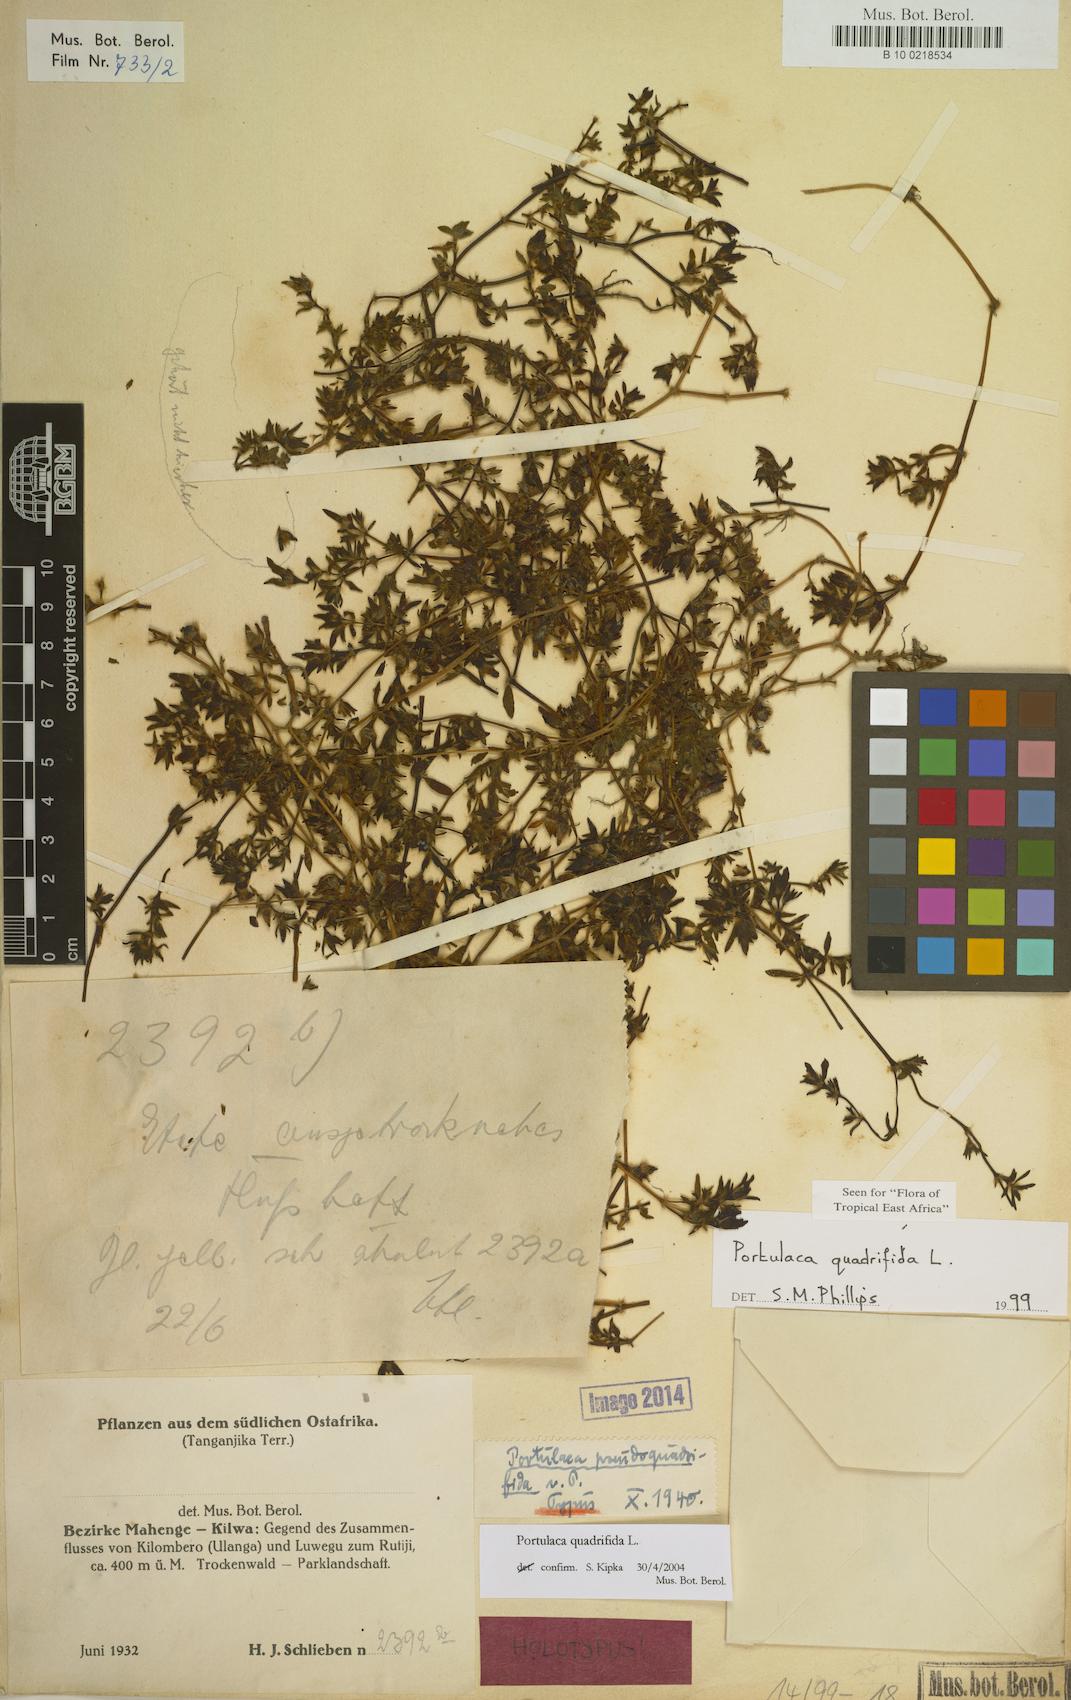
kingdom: Plantae
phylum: Tracheophyta
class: Magnoliopsida
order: Caryophyllales
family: Portulacaceae
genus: Portulaca
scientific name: Portulaca quadrifida
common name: Chickenweed
